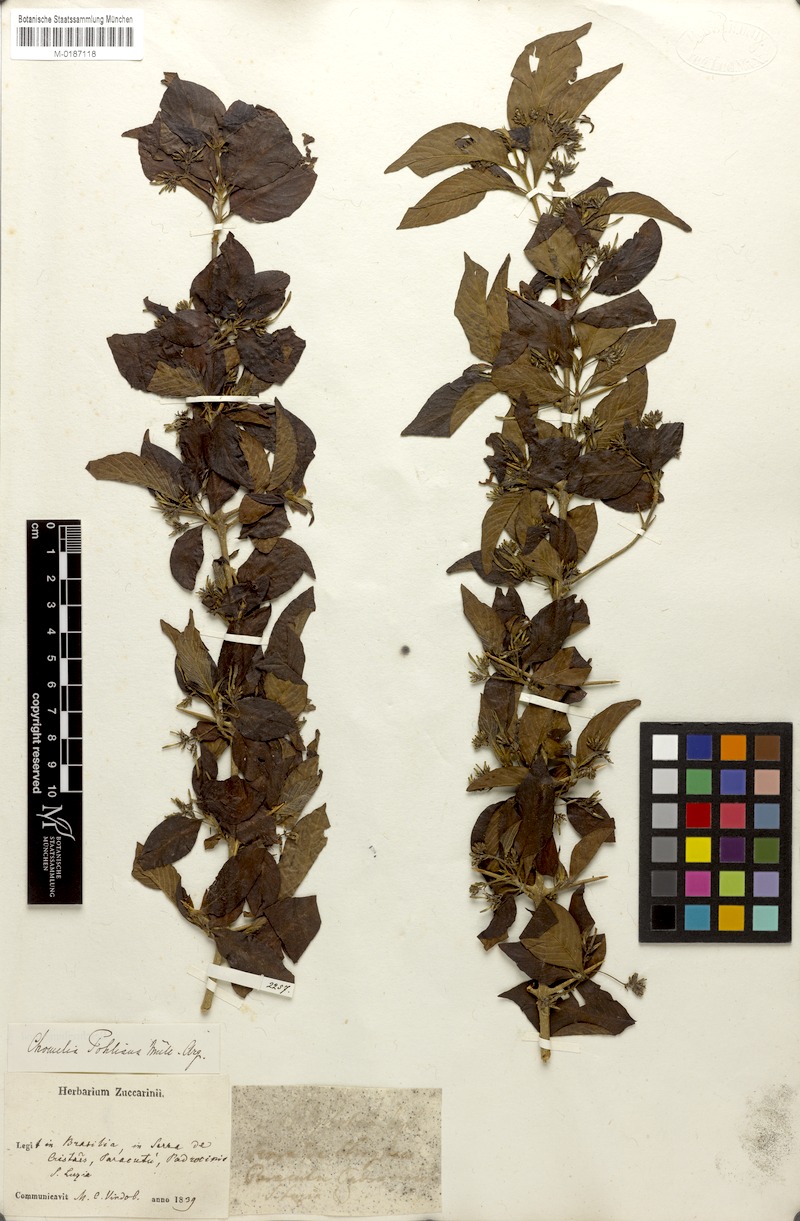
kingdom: Plantae
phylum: Tracheophyta
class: Magnoliopsida
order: Gentianales
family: Rubiaceae
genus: Chomelia
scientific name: Chomelia pohliana
